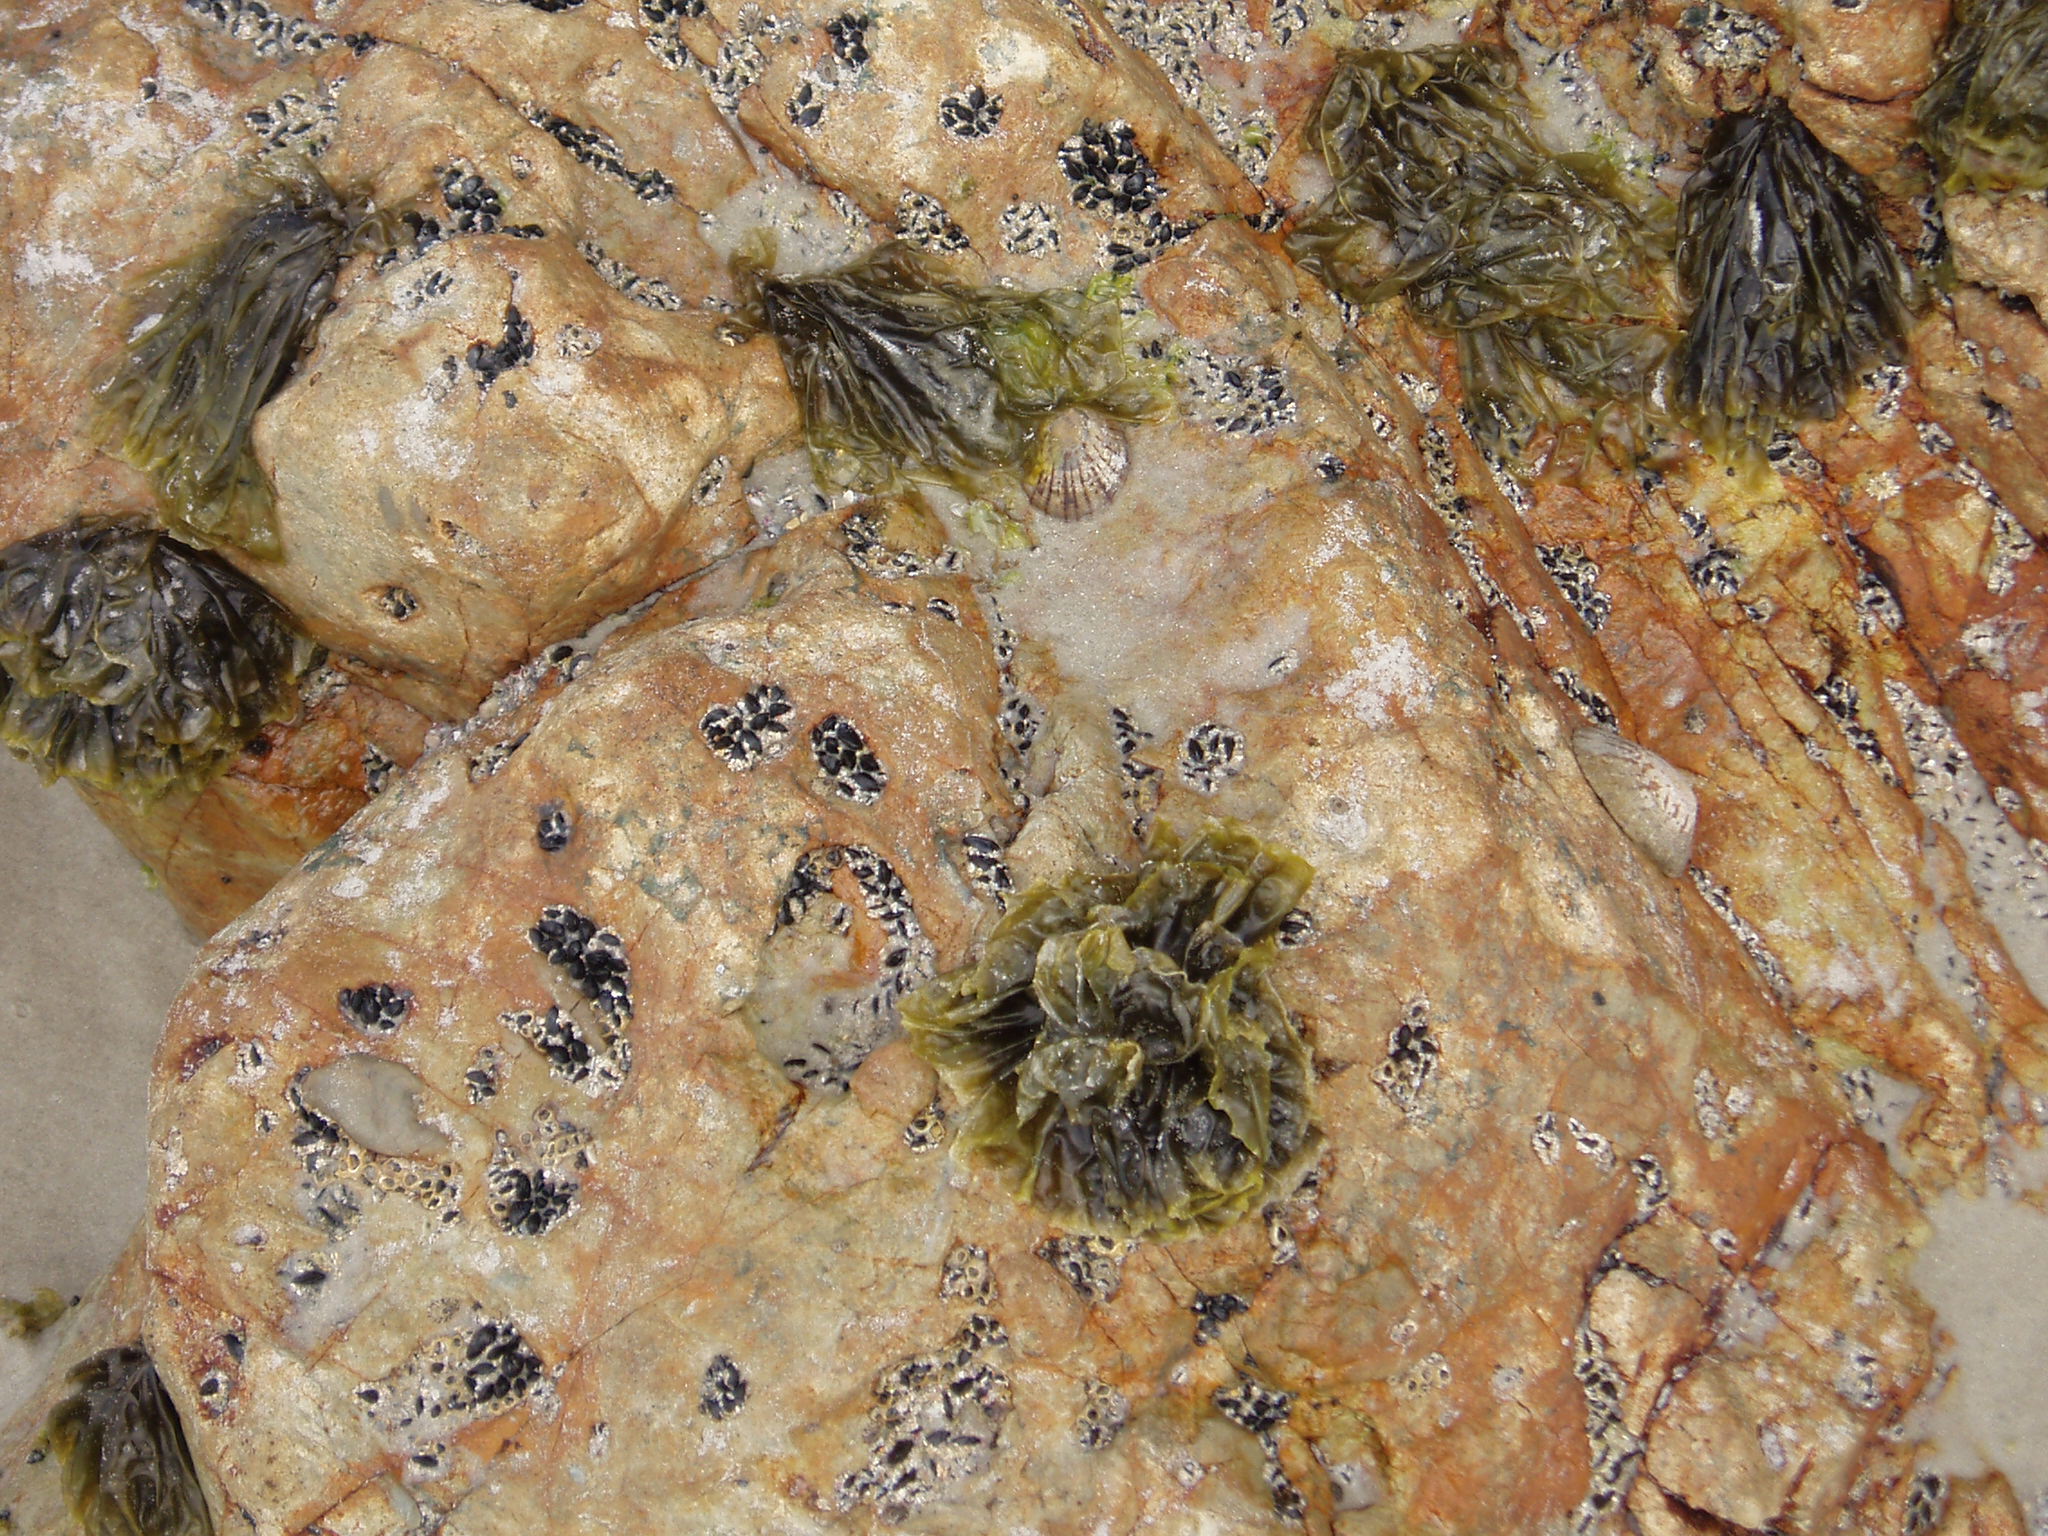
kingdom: Plantae
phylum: Rhodophyta
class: Bangiophyceae
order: Bangiales
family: Bangiaceae
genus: Pyropia
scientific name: Pyropia plicata
